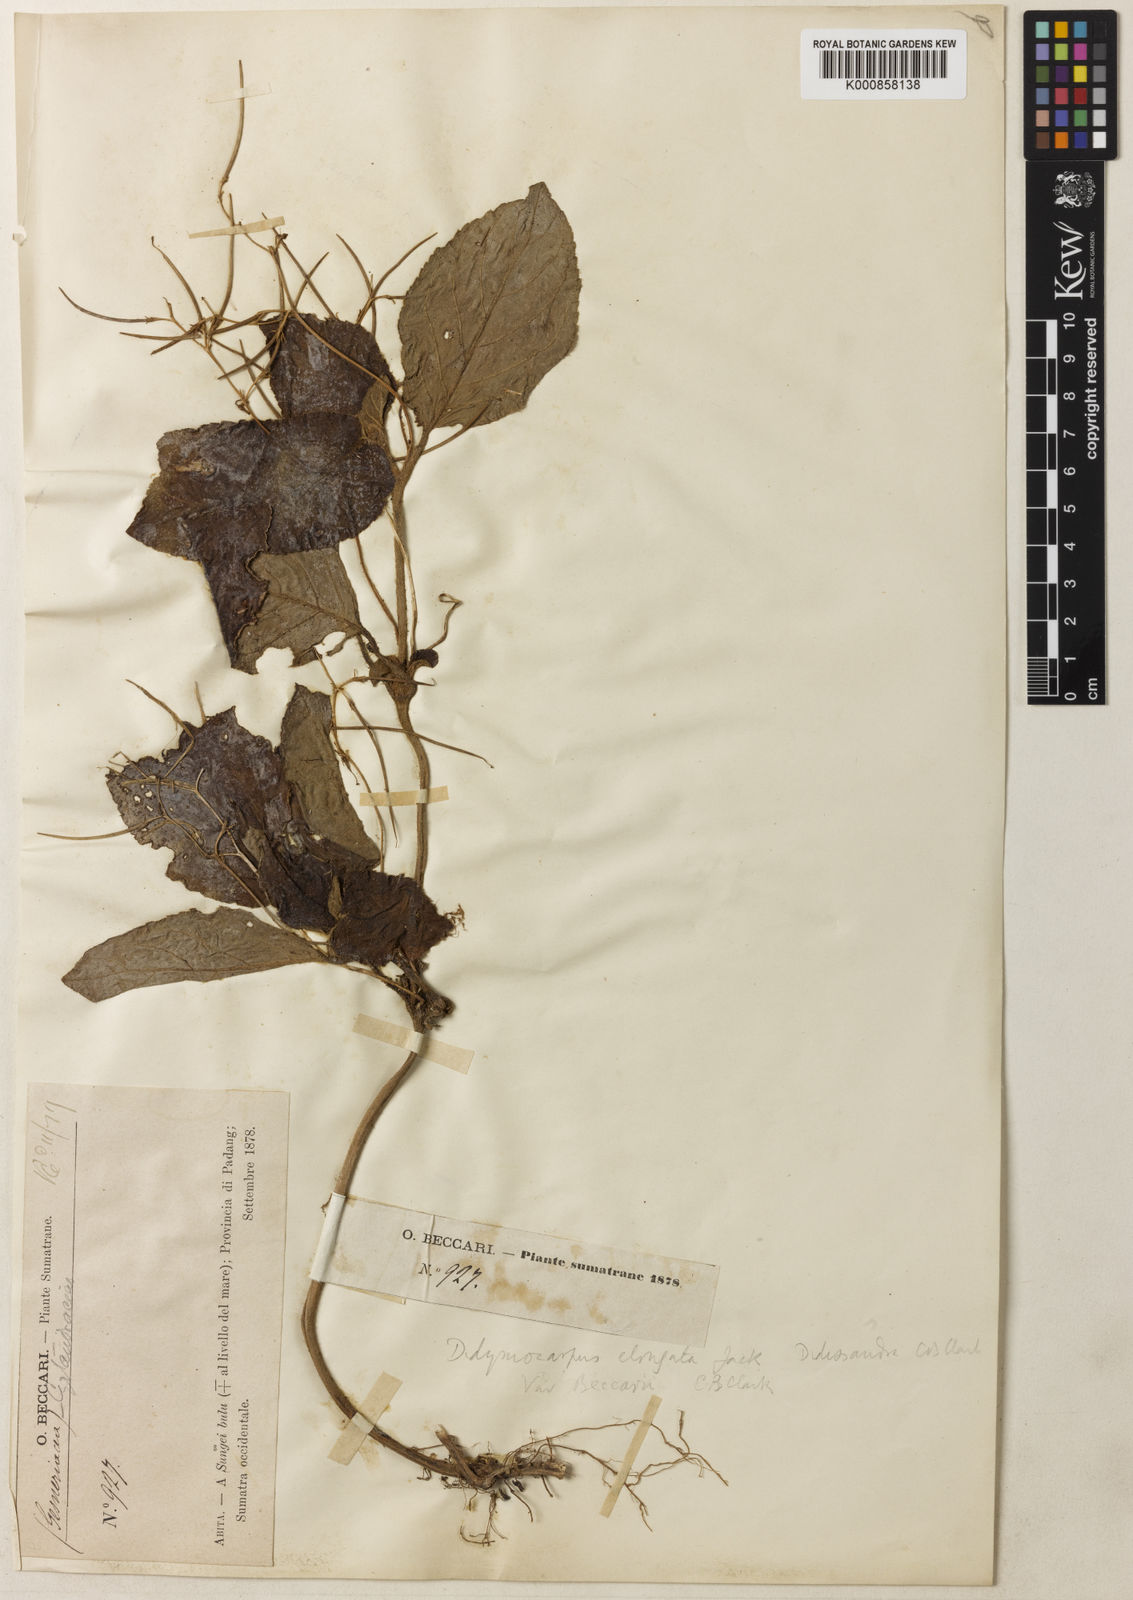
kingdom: Plantae
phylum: Tracheophyta
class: Magnoliopsida
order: Lamiales
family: Gesneriaceae
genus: Didissandra
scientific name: Didissandra elongata
